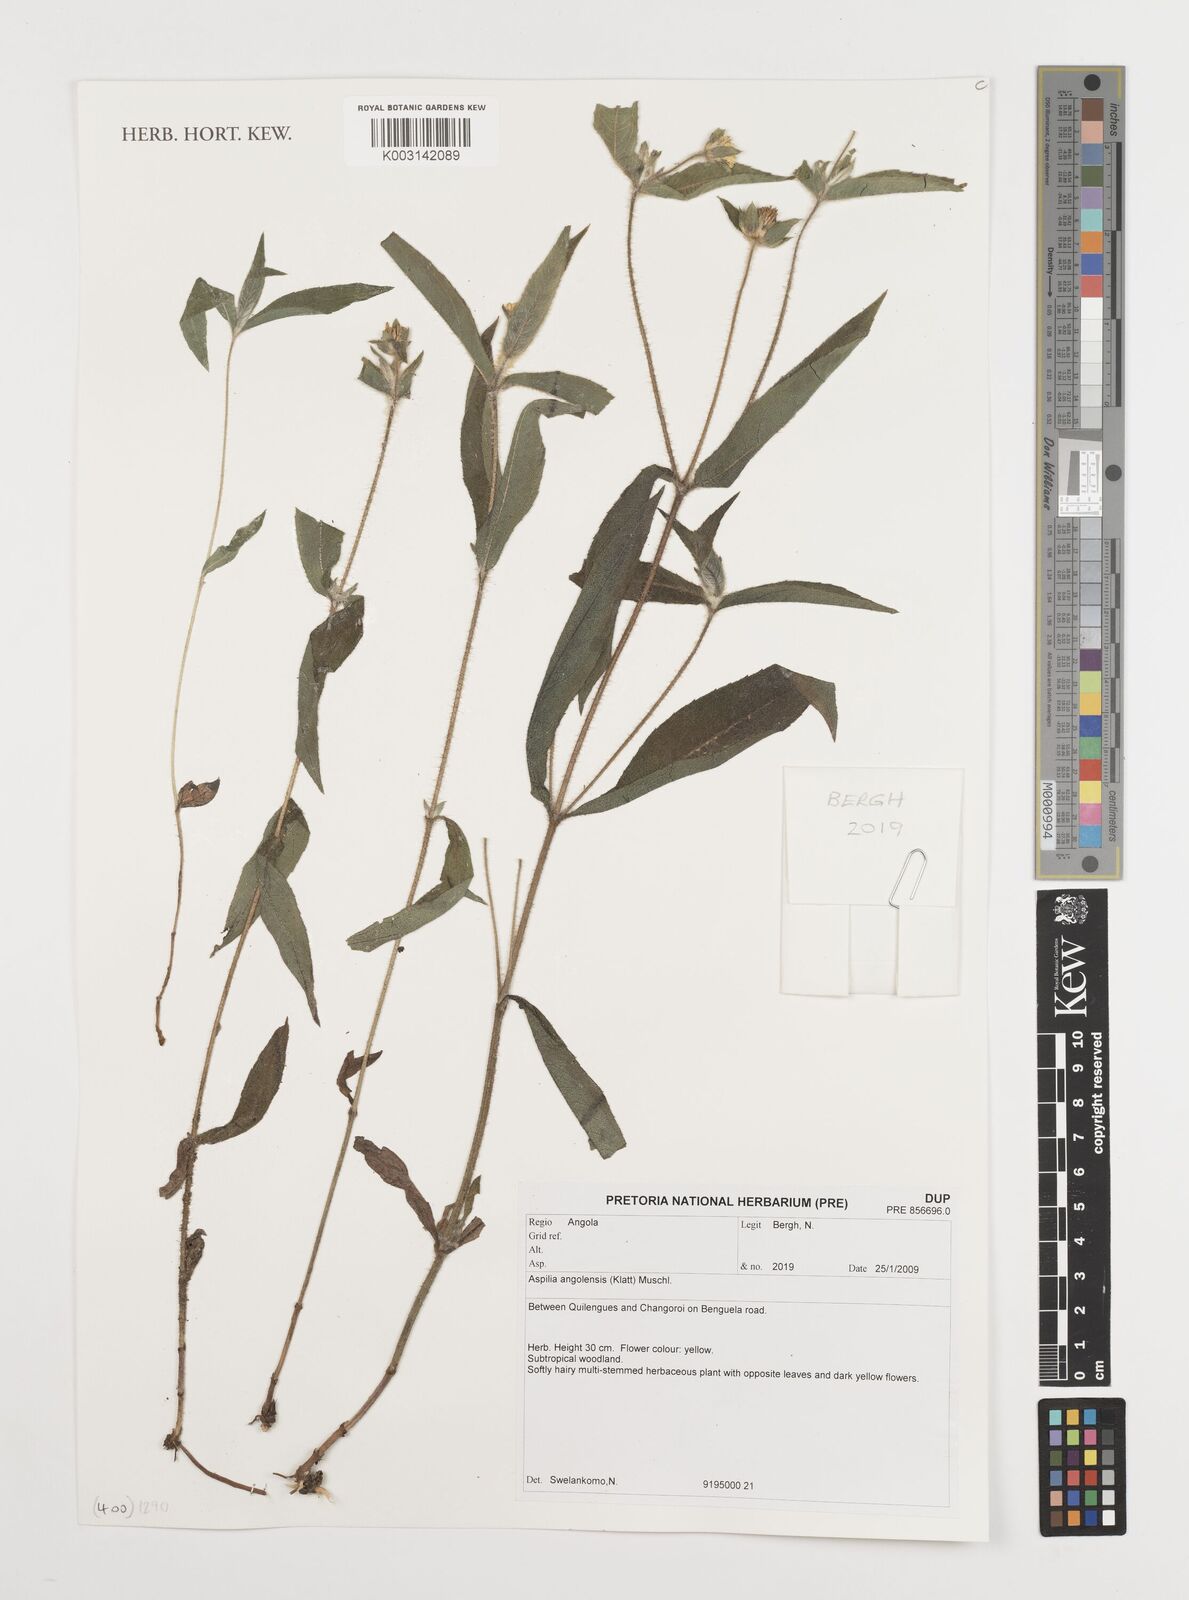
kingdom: Plantae
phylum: Tracheophyta
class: Magnoliopsida
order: Asterales
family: Asteraceae
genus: Aspilia
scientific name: Aspilia angolensis
